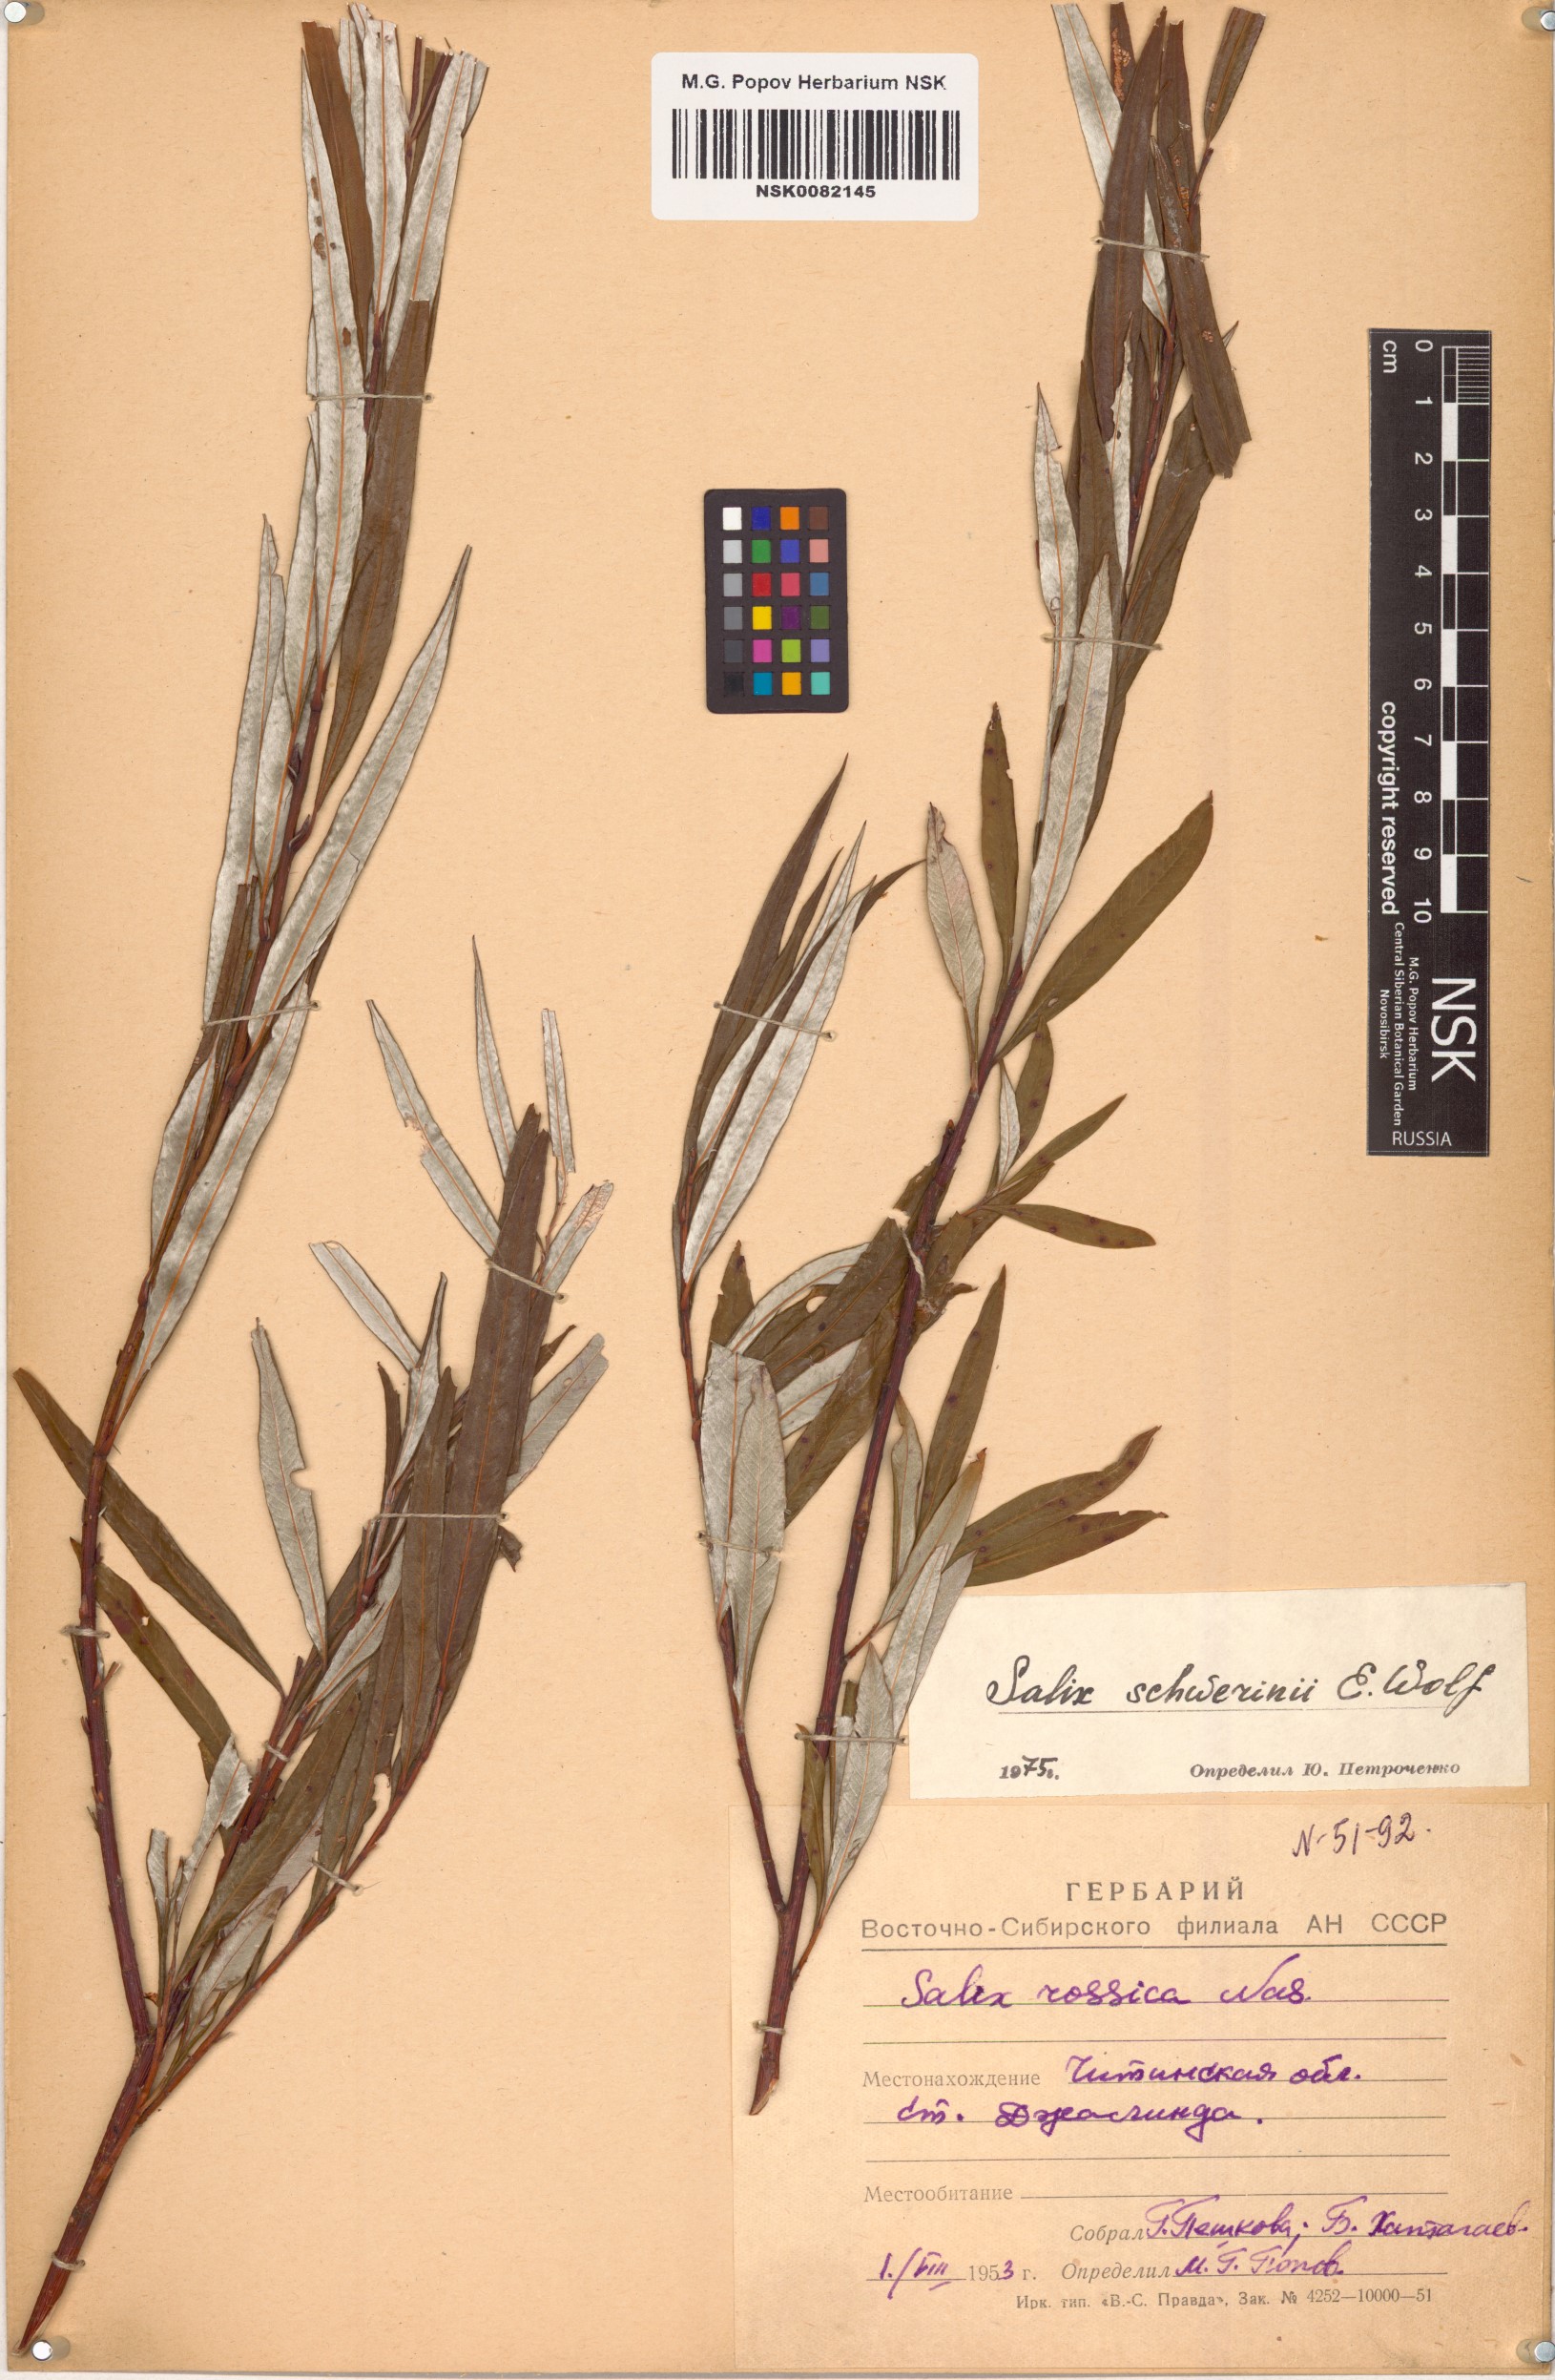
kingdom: Plantae
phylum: Tracheophyta
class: Magnoliopsida
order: Malpighiales
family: Salicaceae
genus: Salix
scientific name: Salix schwerinii
